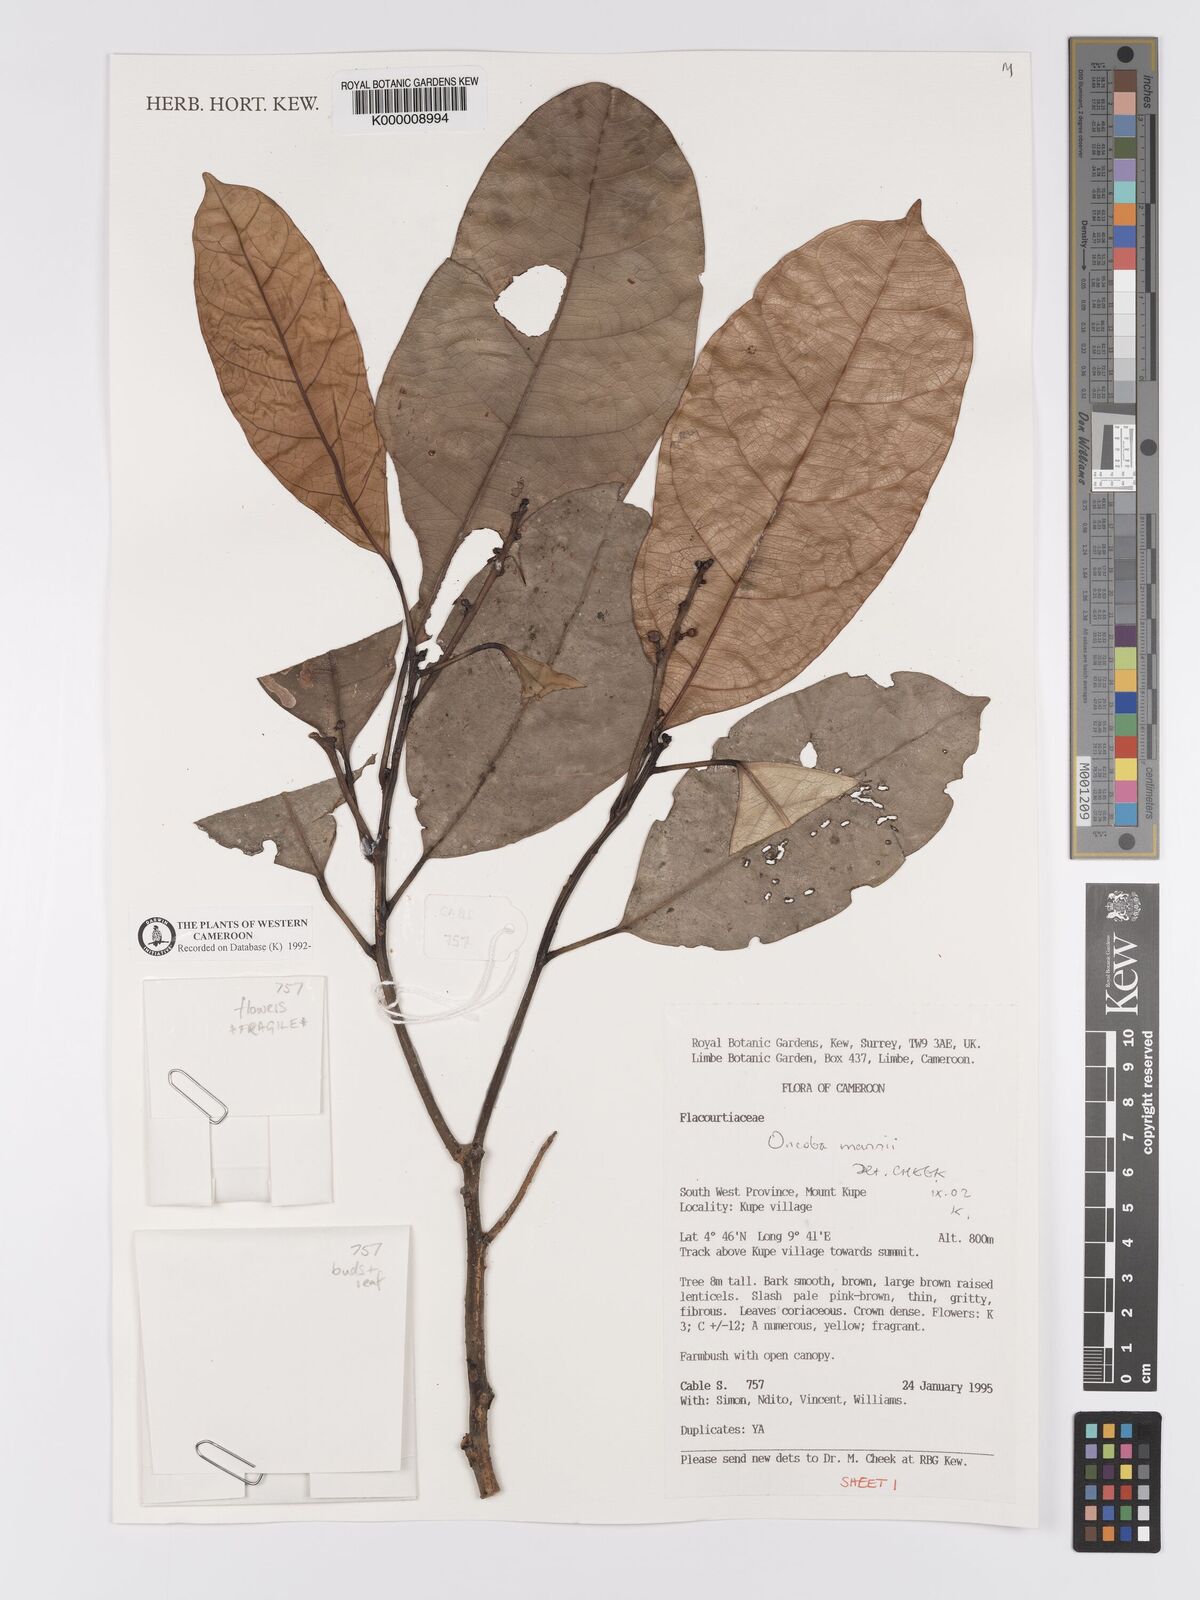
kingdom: Plantae
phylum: Tracheophyta
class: Magnoliopsida
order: Malpighiales
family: Achariaceae
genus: Camptostylus
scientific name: Camptostylus mannii
